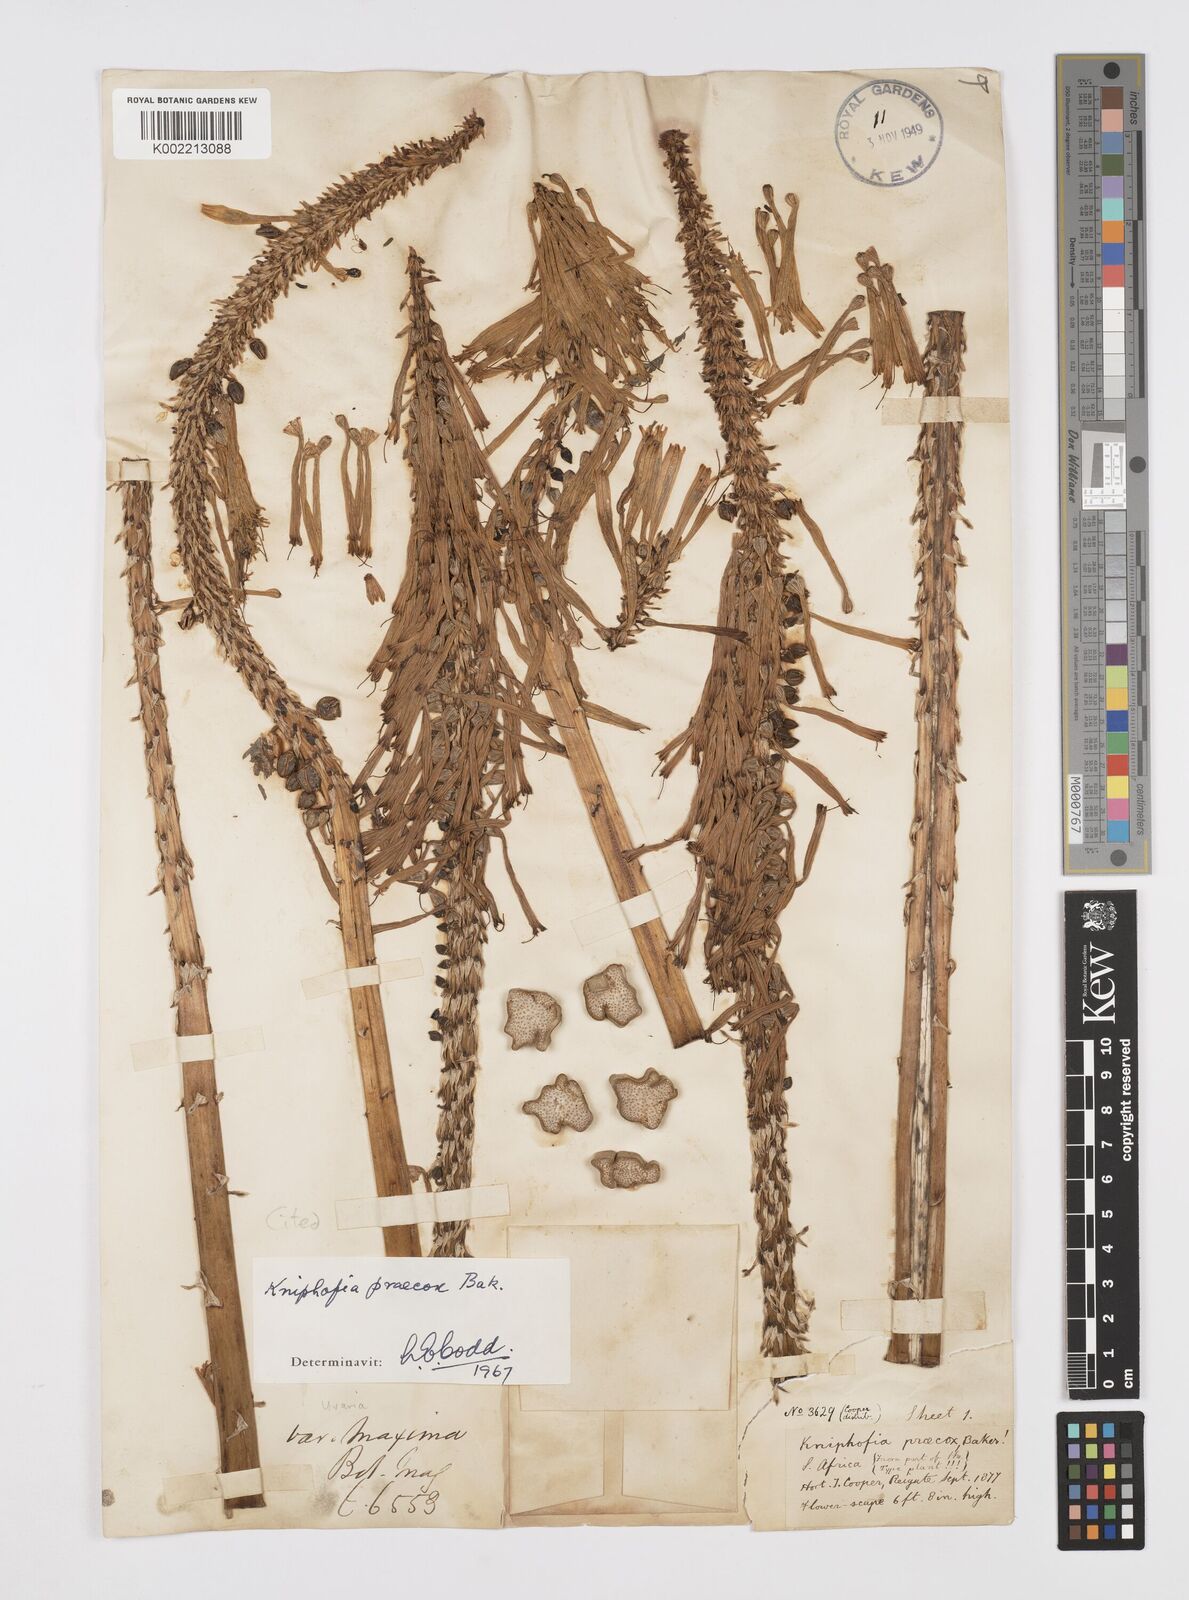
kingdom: Plantae
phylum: Tracheophyta
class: Liliopsida
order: Asparagales
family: Asphodelaceae
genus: Kniphofia
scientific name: Kniphofia praecox
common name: Greater red-hot-poker
